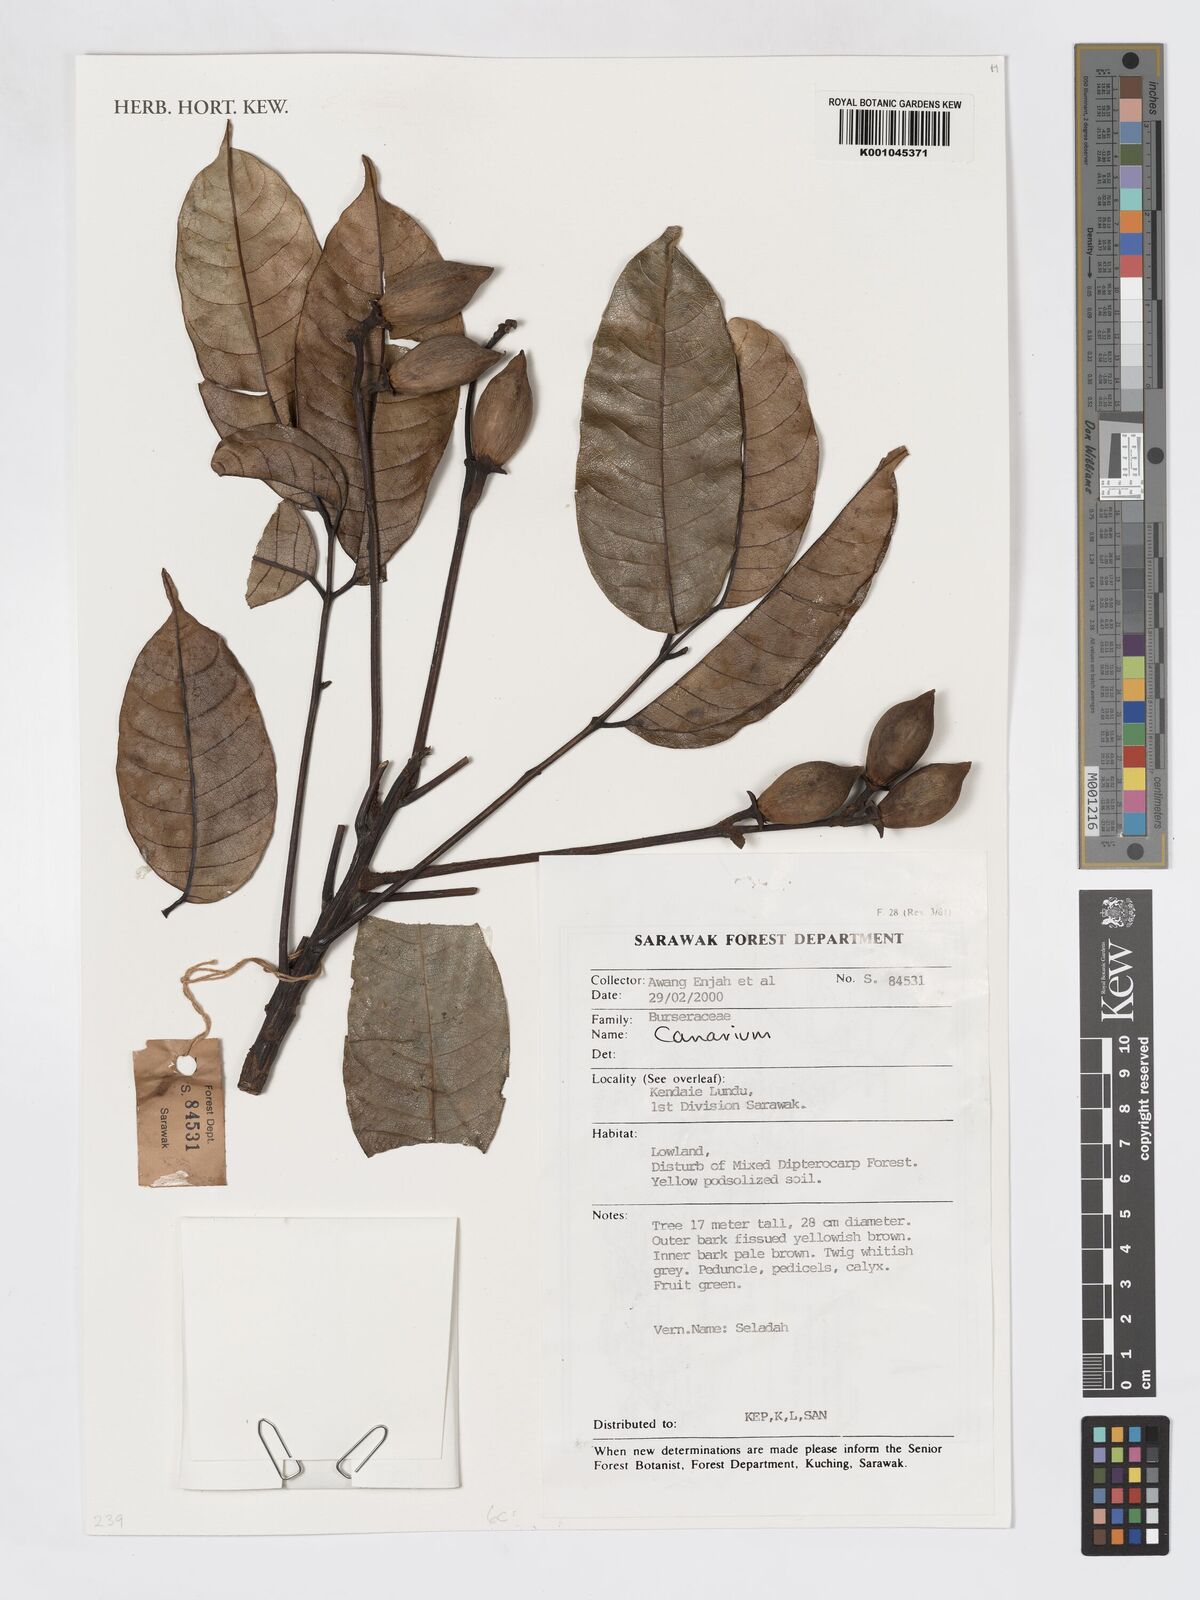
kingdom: Plantae
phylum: Tracheophyta
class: Magnoliopsida
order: Sapindales
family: Burseraceae
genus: Canarium
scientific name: Canarium
